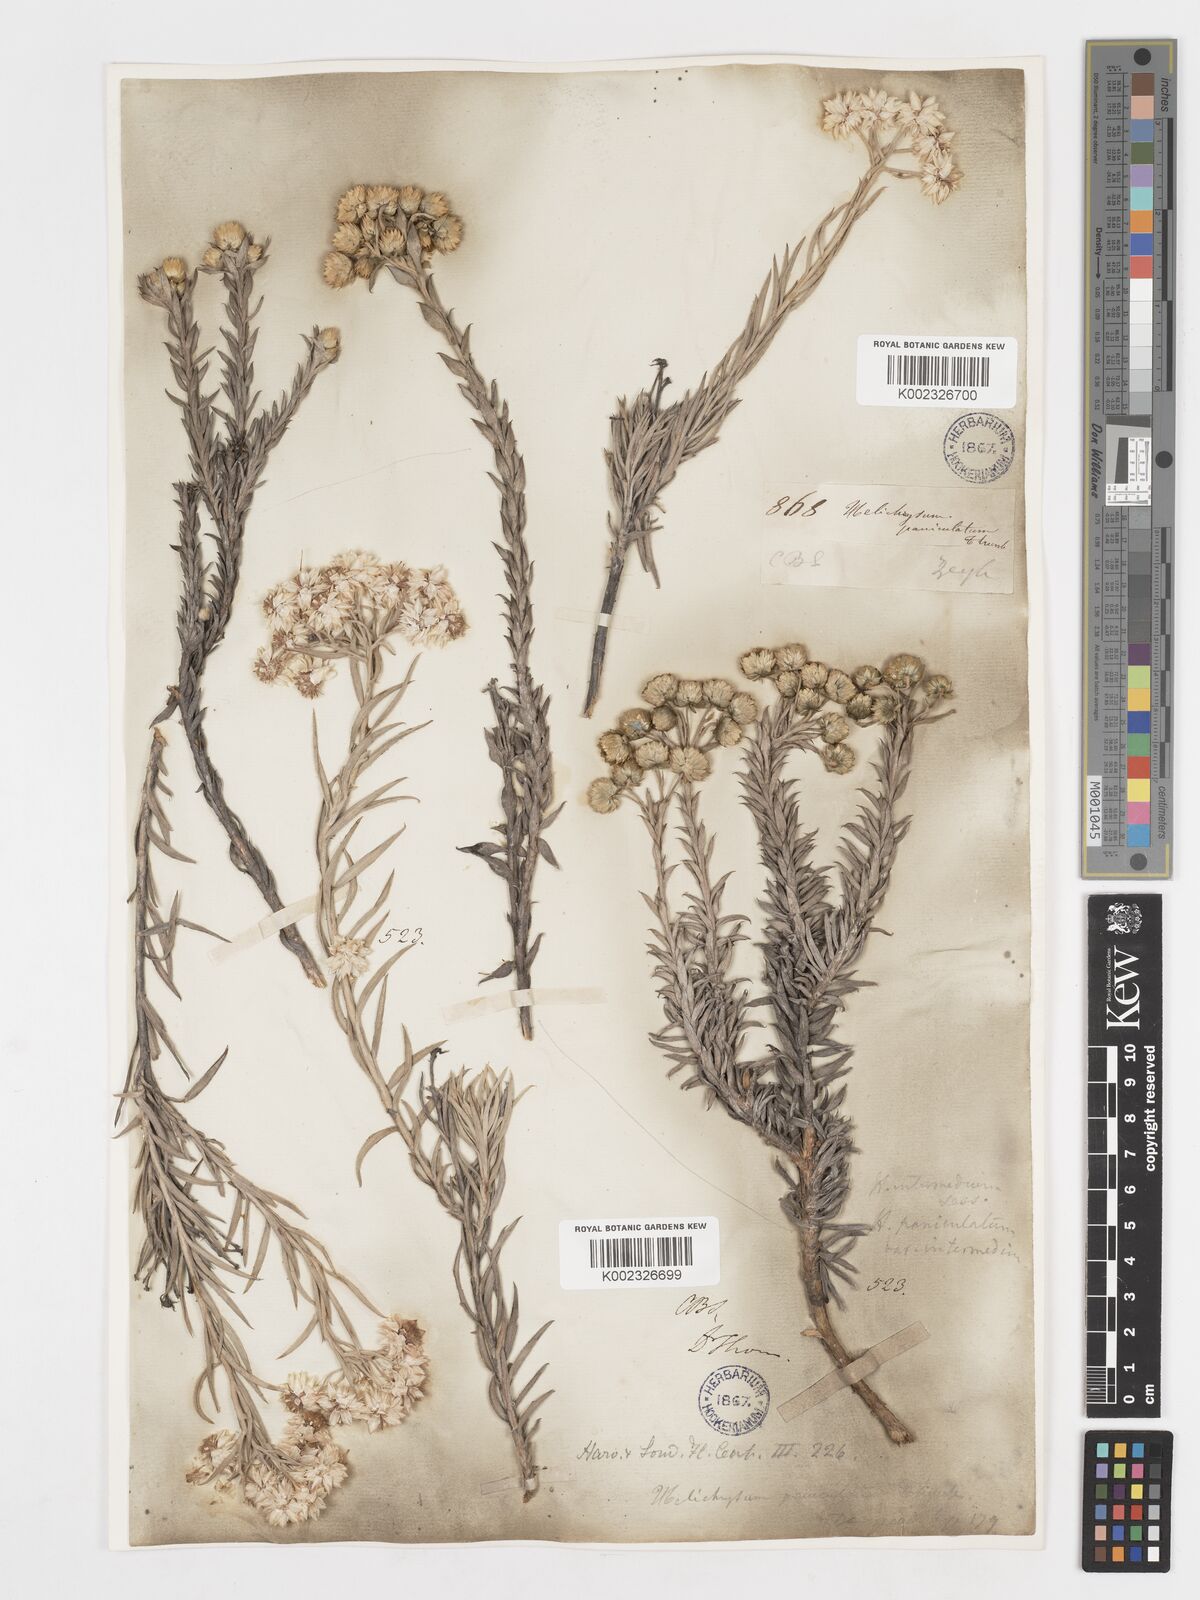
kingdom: Plantae
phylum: Tracheophyta
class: Magnoliopsida
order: Asterales
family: Asteraceae
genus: Achyranthemum
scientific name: Achyranthemum paniculatum
